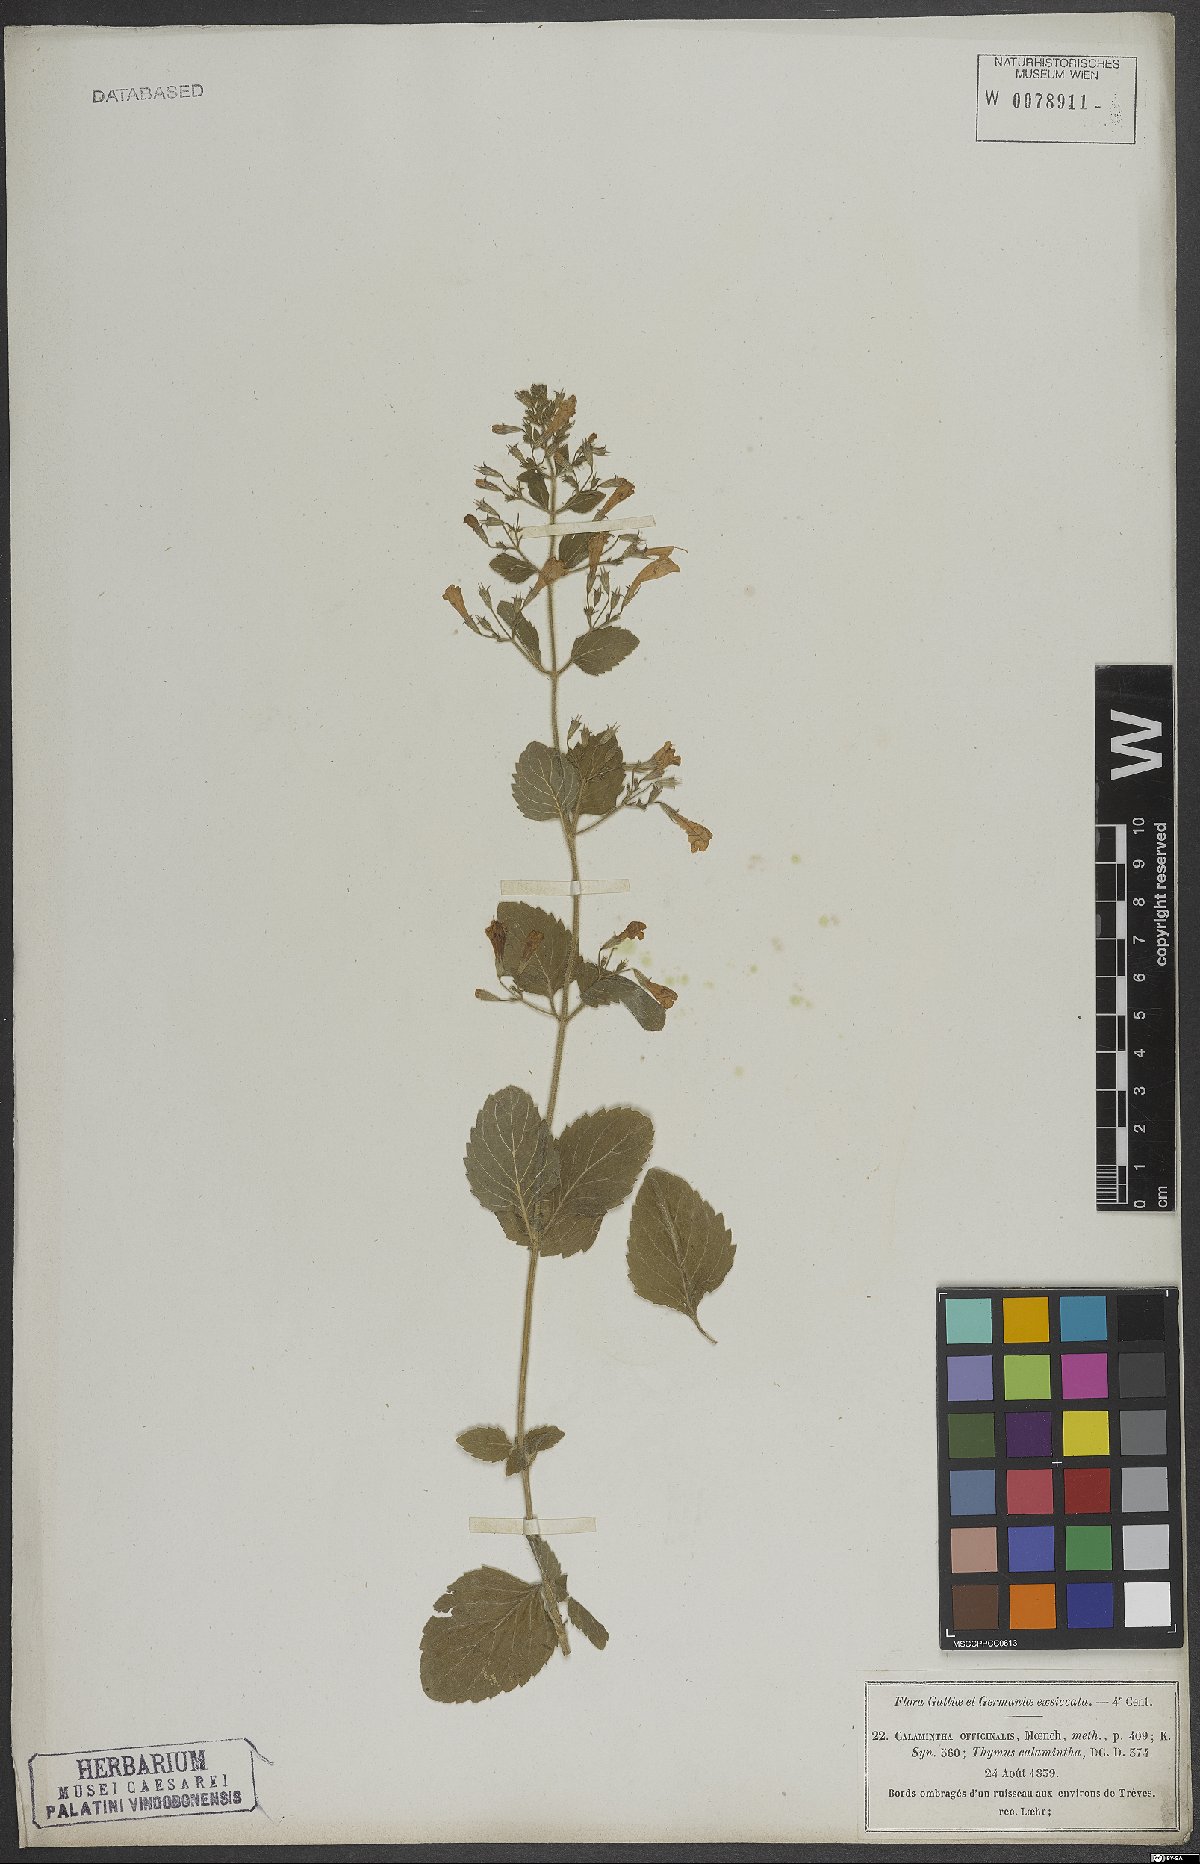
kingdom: Plantae
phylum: Tracheophyta
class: Magnoliopsida
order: Lamiales
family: Lamiaceae
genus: Clinopodium
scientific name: Clinopodium nepeta
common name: Lesser calamint
